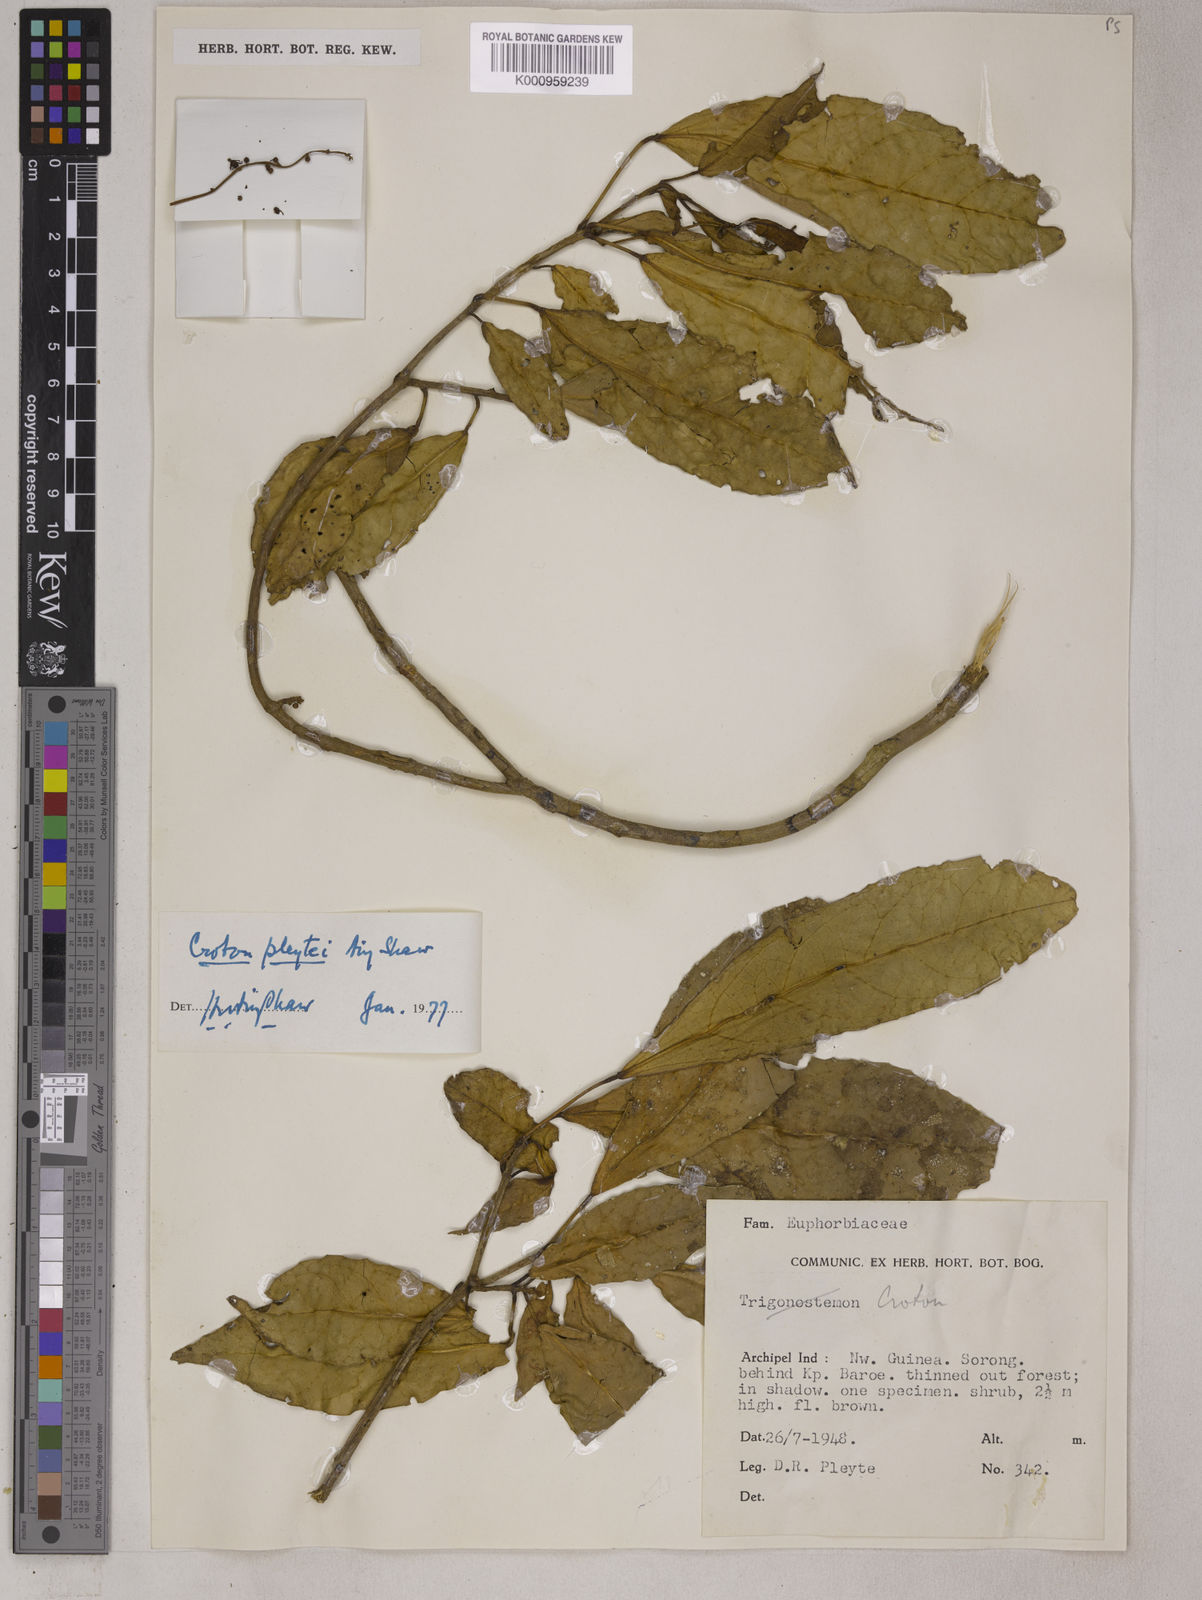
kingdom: Plantae
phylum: Tracheophyta
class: Magnoliopsida
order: Malpighiales
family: Euphorbiaceae
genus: Croton
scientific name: Croton pleytei
